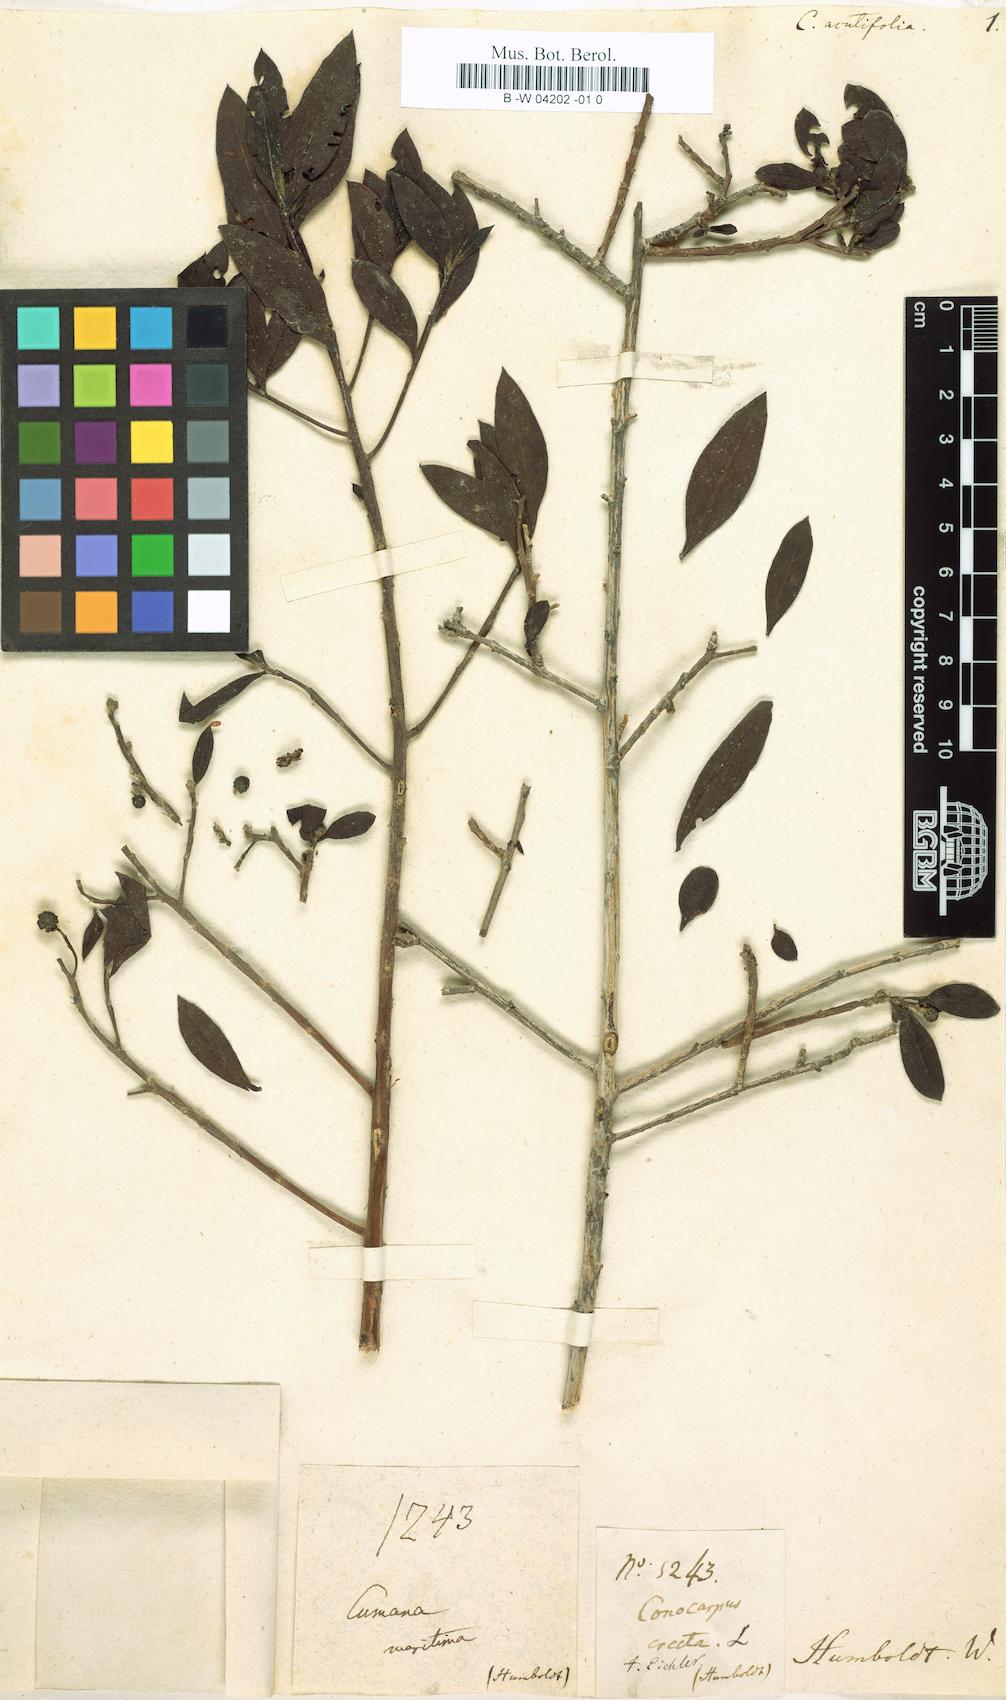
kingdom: Plantae
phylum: Tracheophyta
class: Magnoliopsida
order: Myrtales
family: Combretaceae
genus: Conocarpus
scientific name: Conocarpus acutifolius
